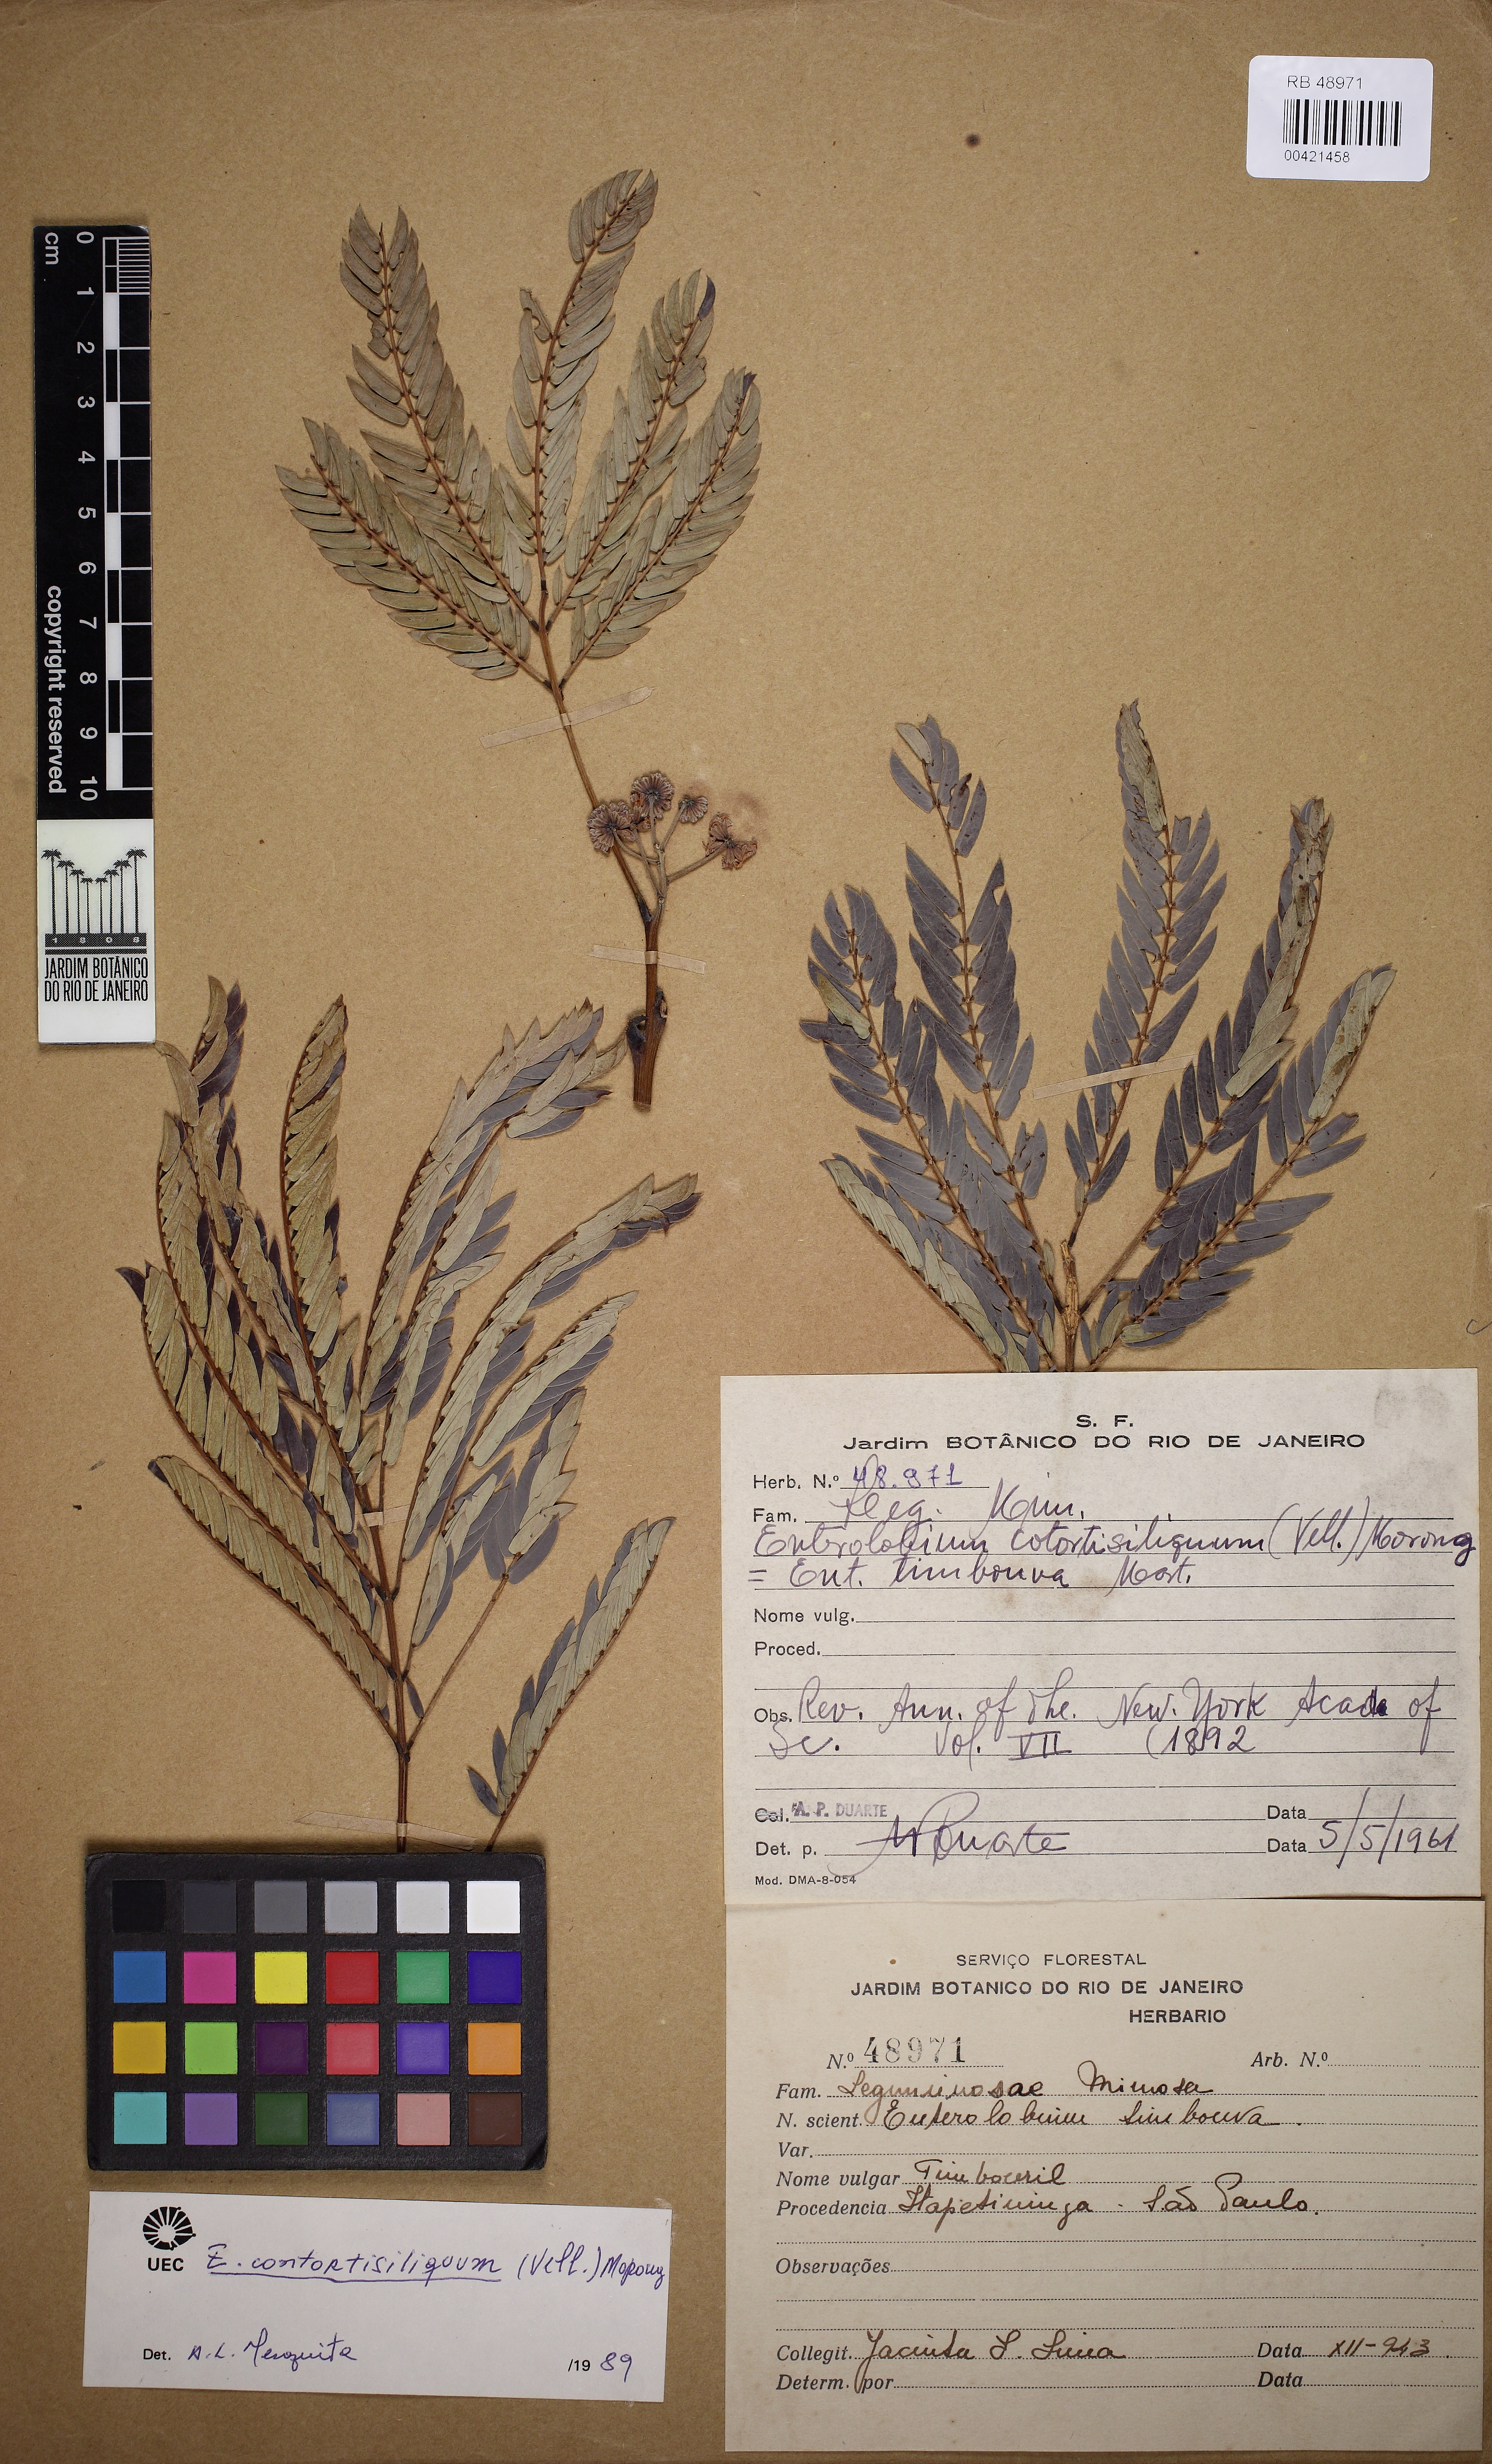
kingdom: Plantae
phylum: Tracheophyta
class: Magnoliopsida
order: Fabales
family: Fabaceae
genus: Enterolobium
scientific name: Enterolobium contortisiliquum
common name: Pacara earpod tree
